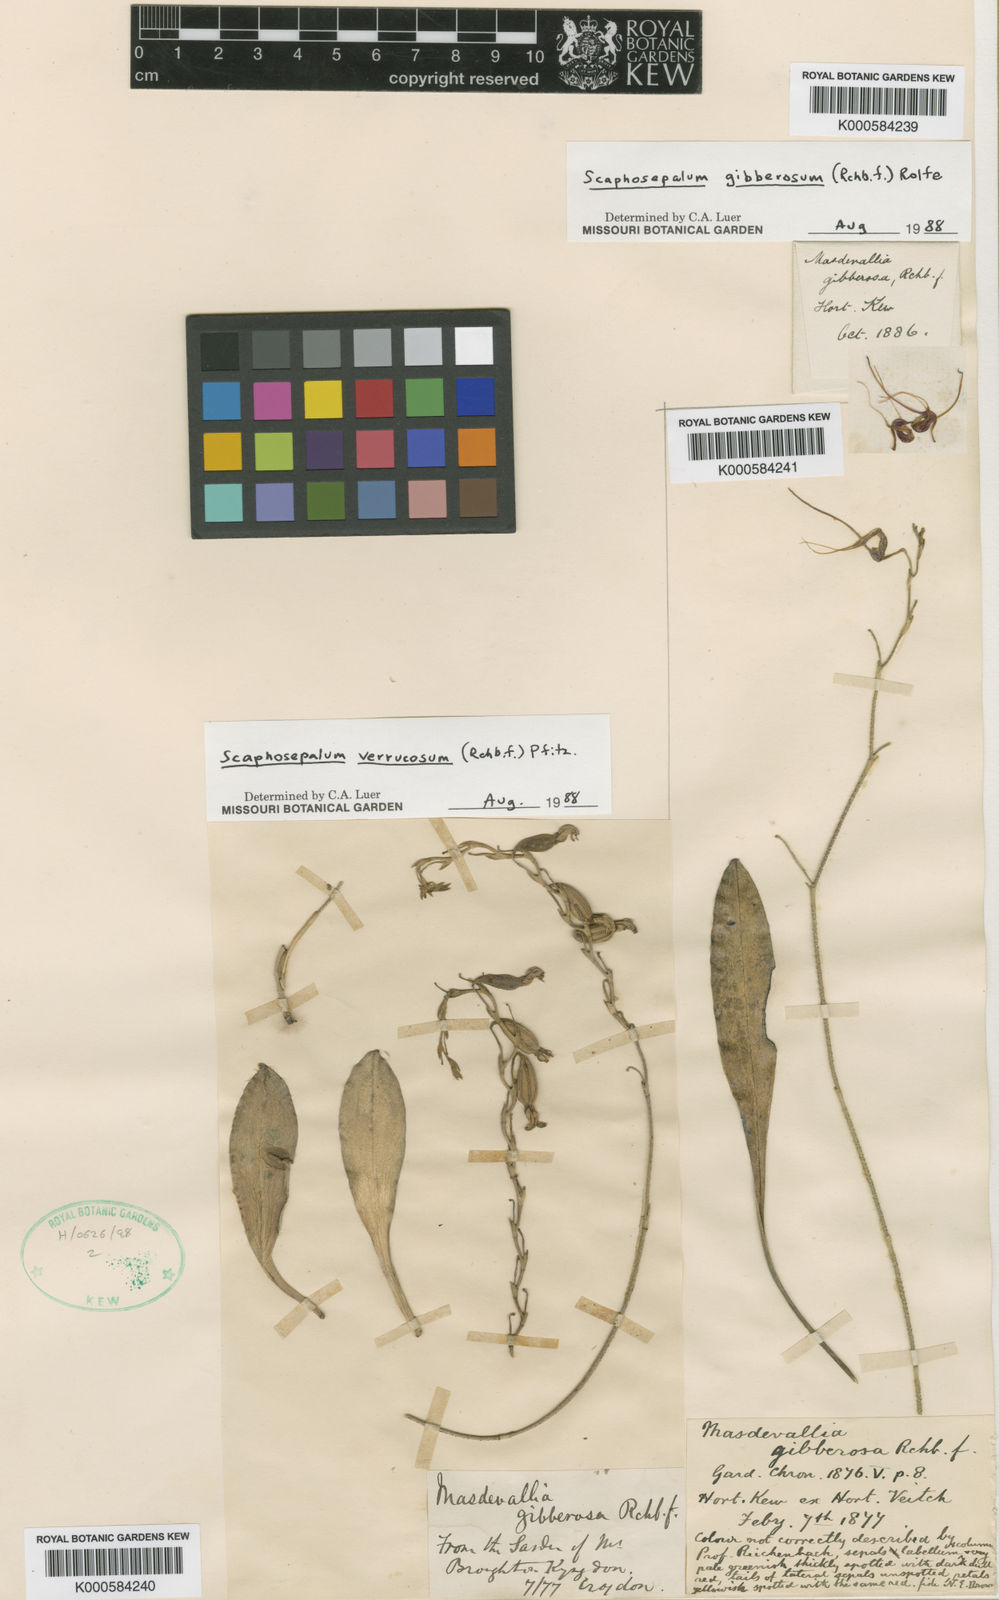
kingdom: Plantae
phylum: Tracheophyta
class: Liliopsida
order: Asparagales
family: Orchidaceae
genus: Scaphosepalum
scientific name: Scaphosepalum gibberosum
